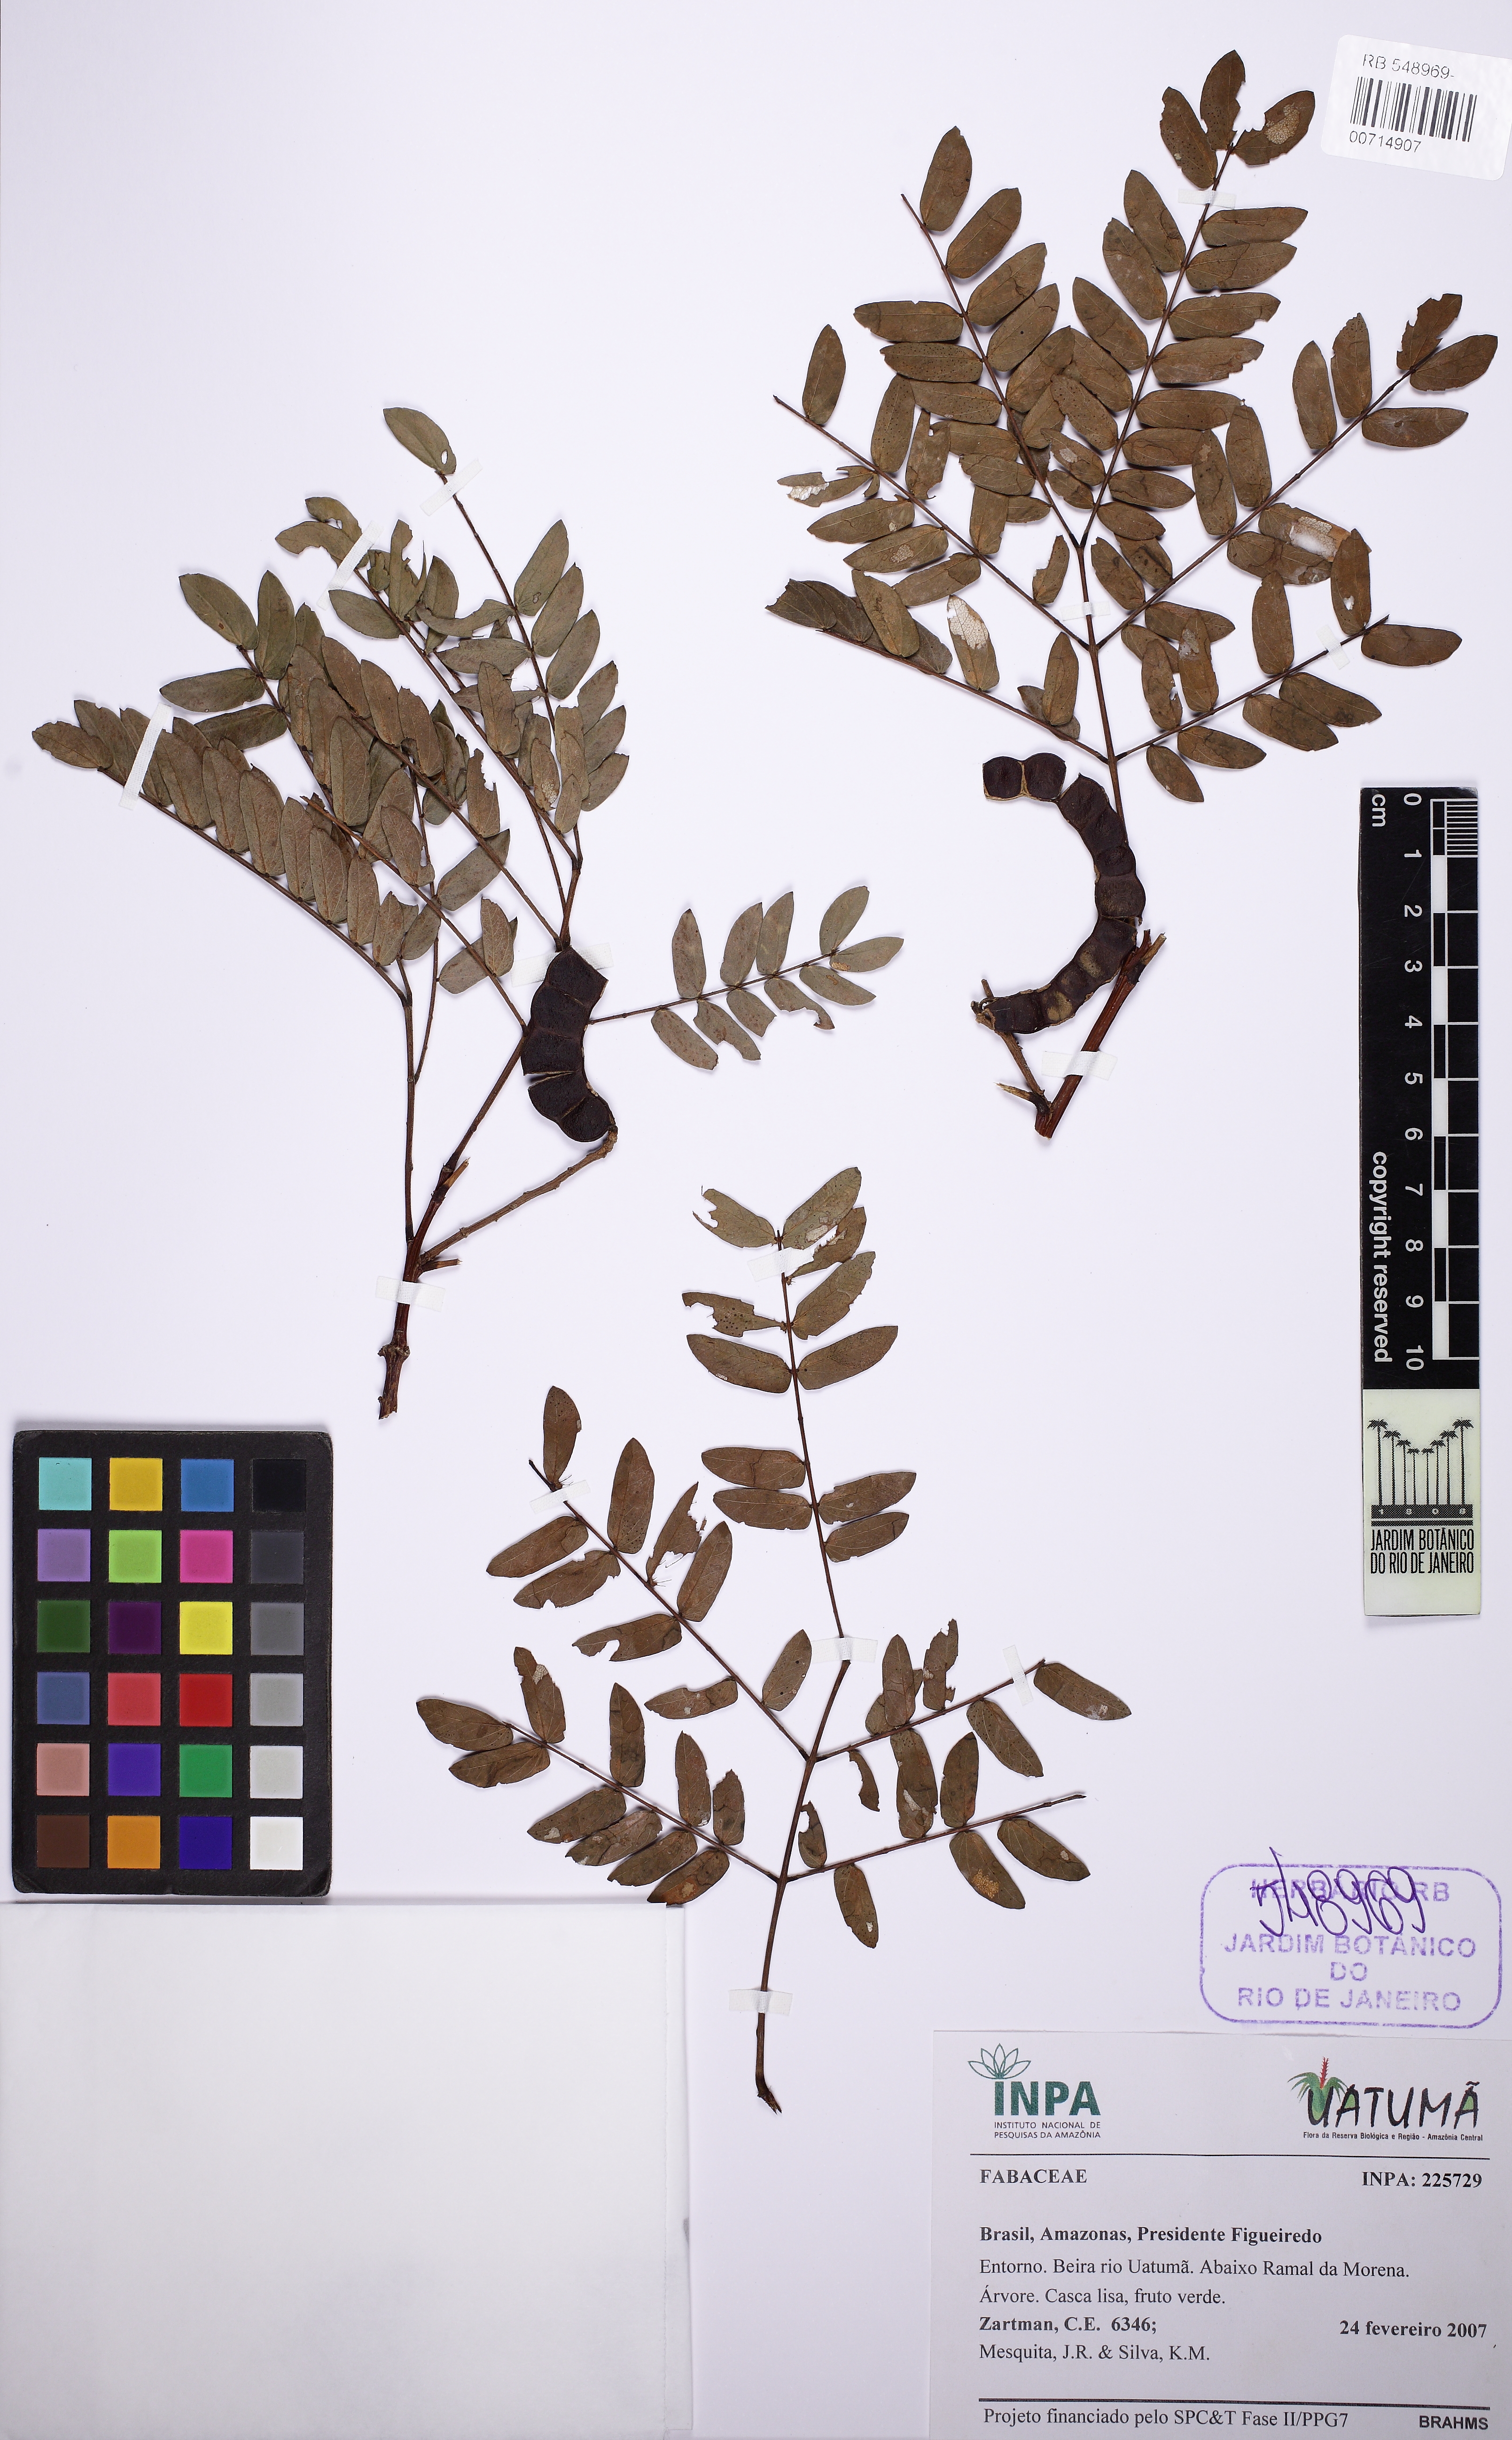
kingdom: Plantae
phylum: Tracheophyta
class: Magnoliopsida
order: Fabales
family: Fabaceae
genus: Albizia
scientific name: Albizia subdimidiata
